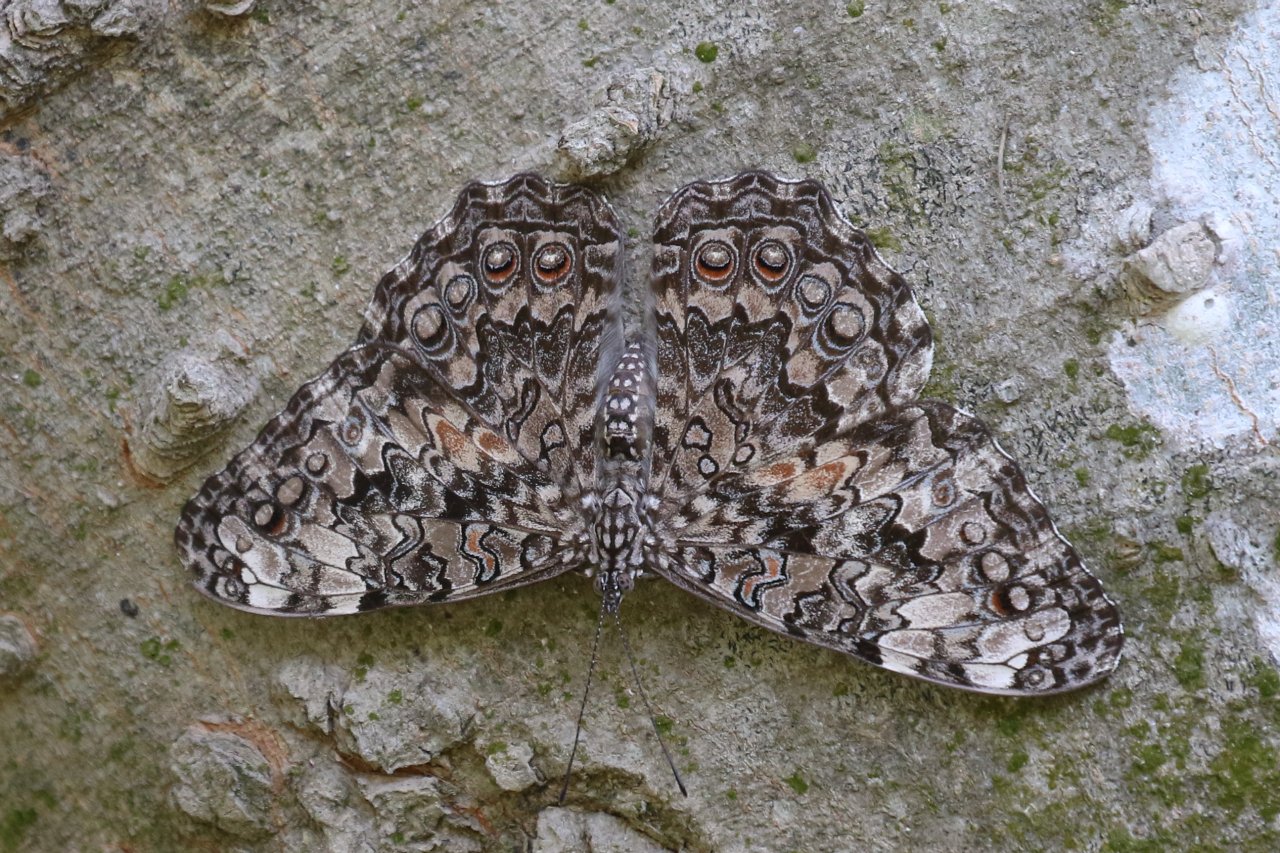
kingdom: Animalia
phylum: Arthropoda
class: Insecta
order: Lepidoptera
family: Nymphalidae
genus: Hamadryas
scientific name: Hamadryas februa
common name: Gray Cracker
